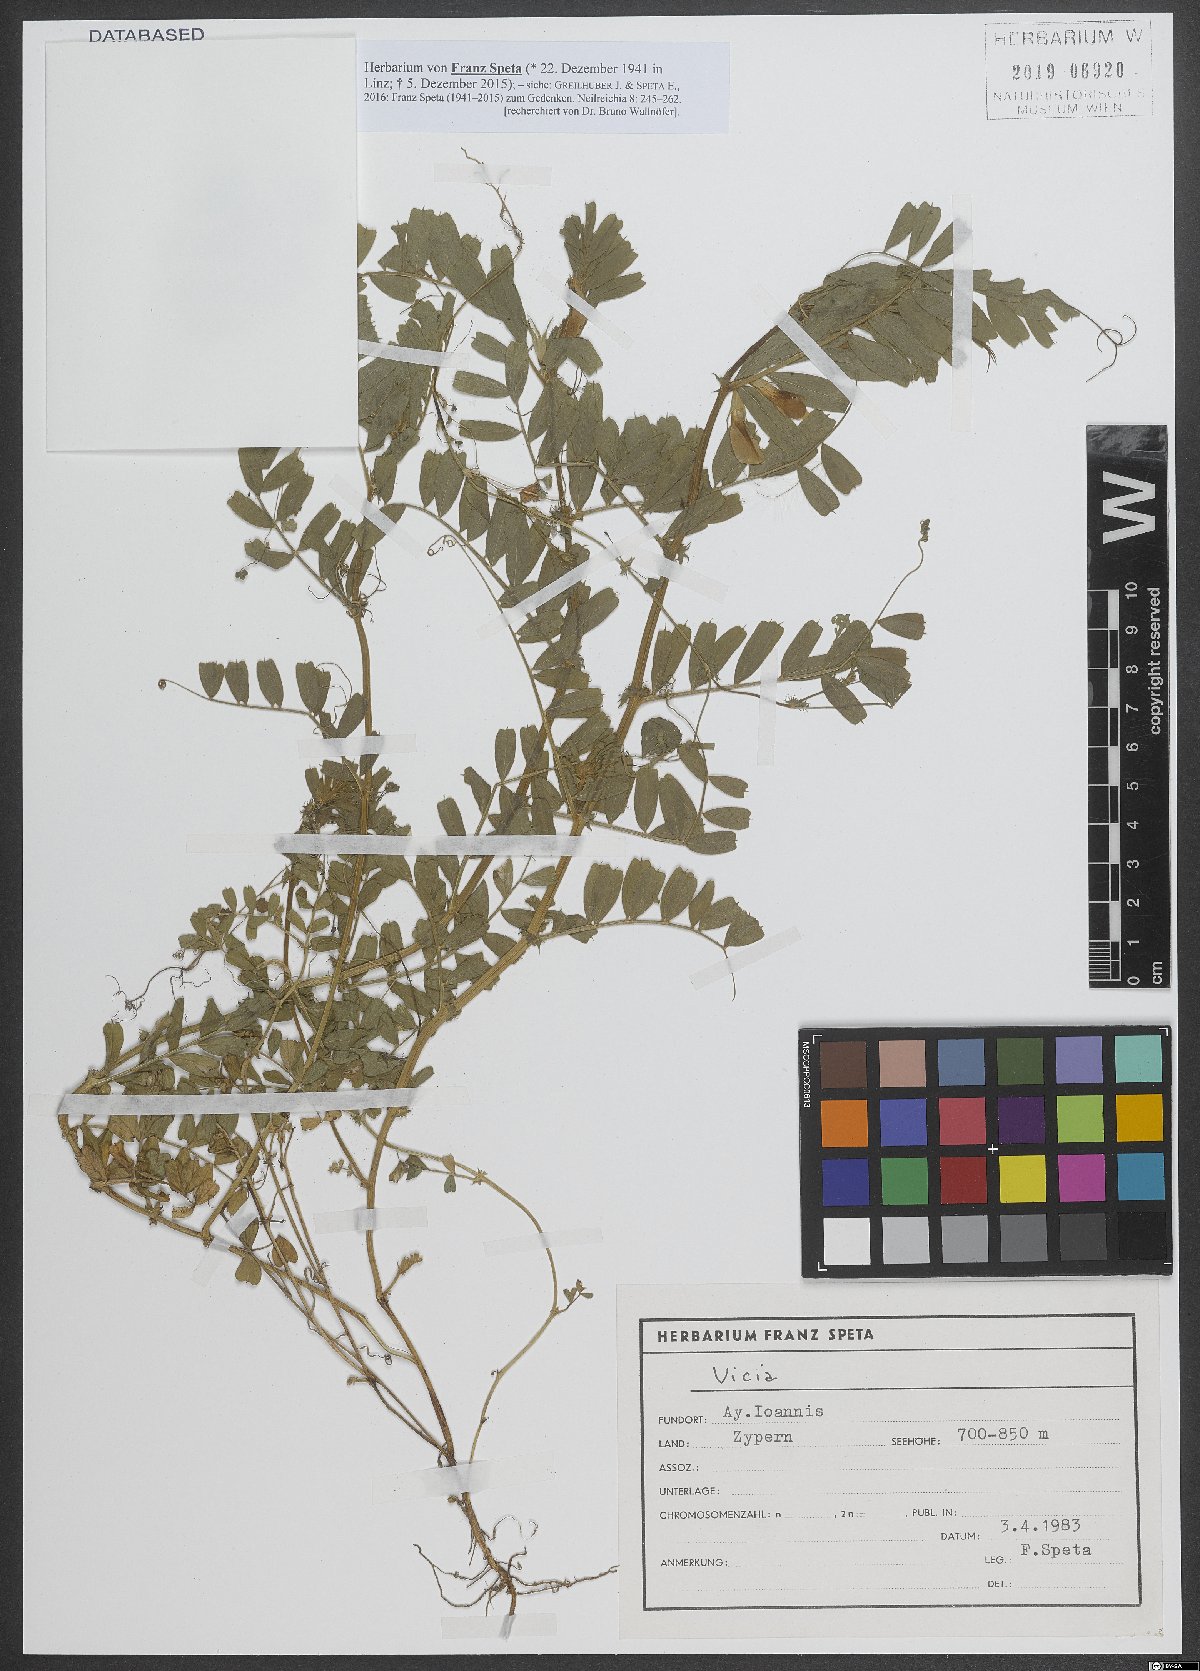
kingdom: Plantae
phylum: Tracheophyta
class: Magnoliopsida
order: Fabales
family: Fabaceae
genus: Vicia
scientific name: Vicia
